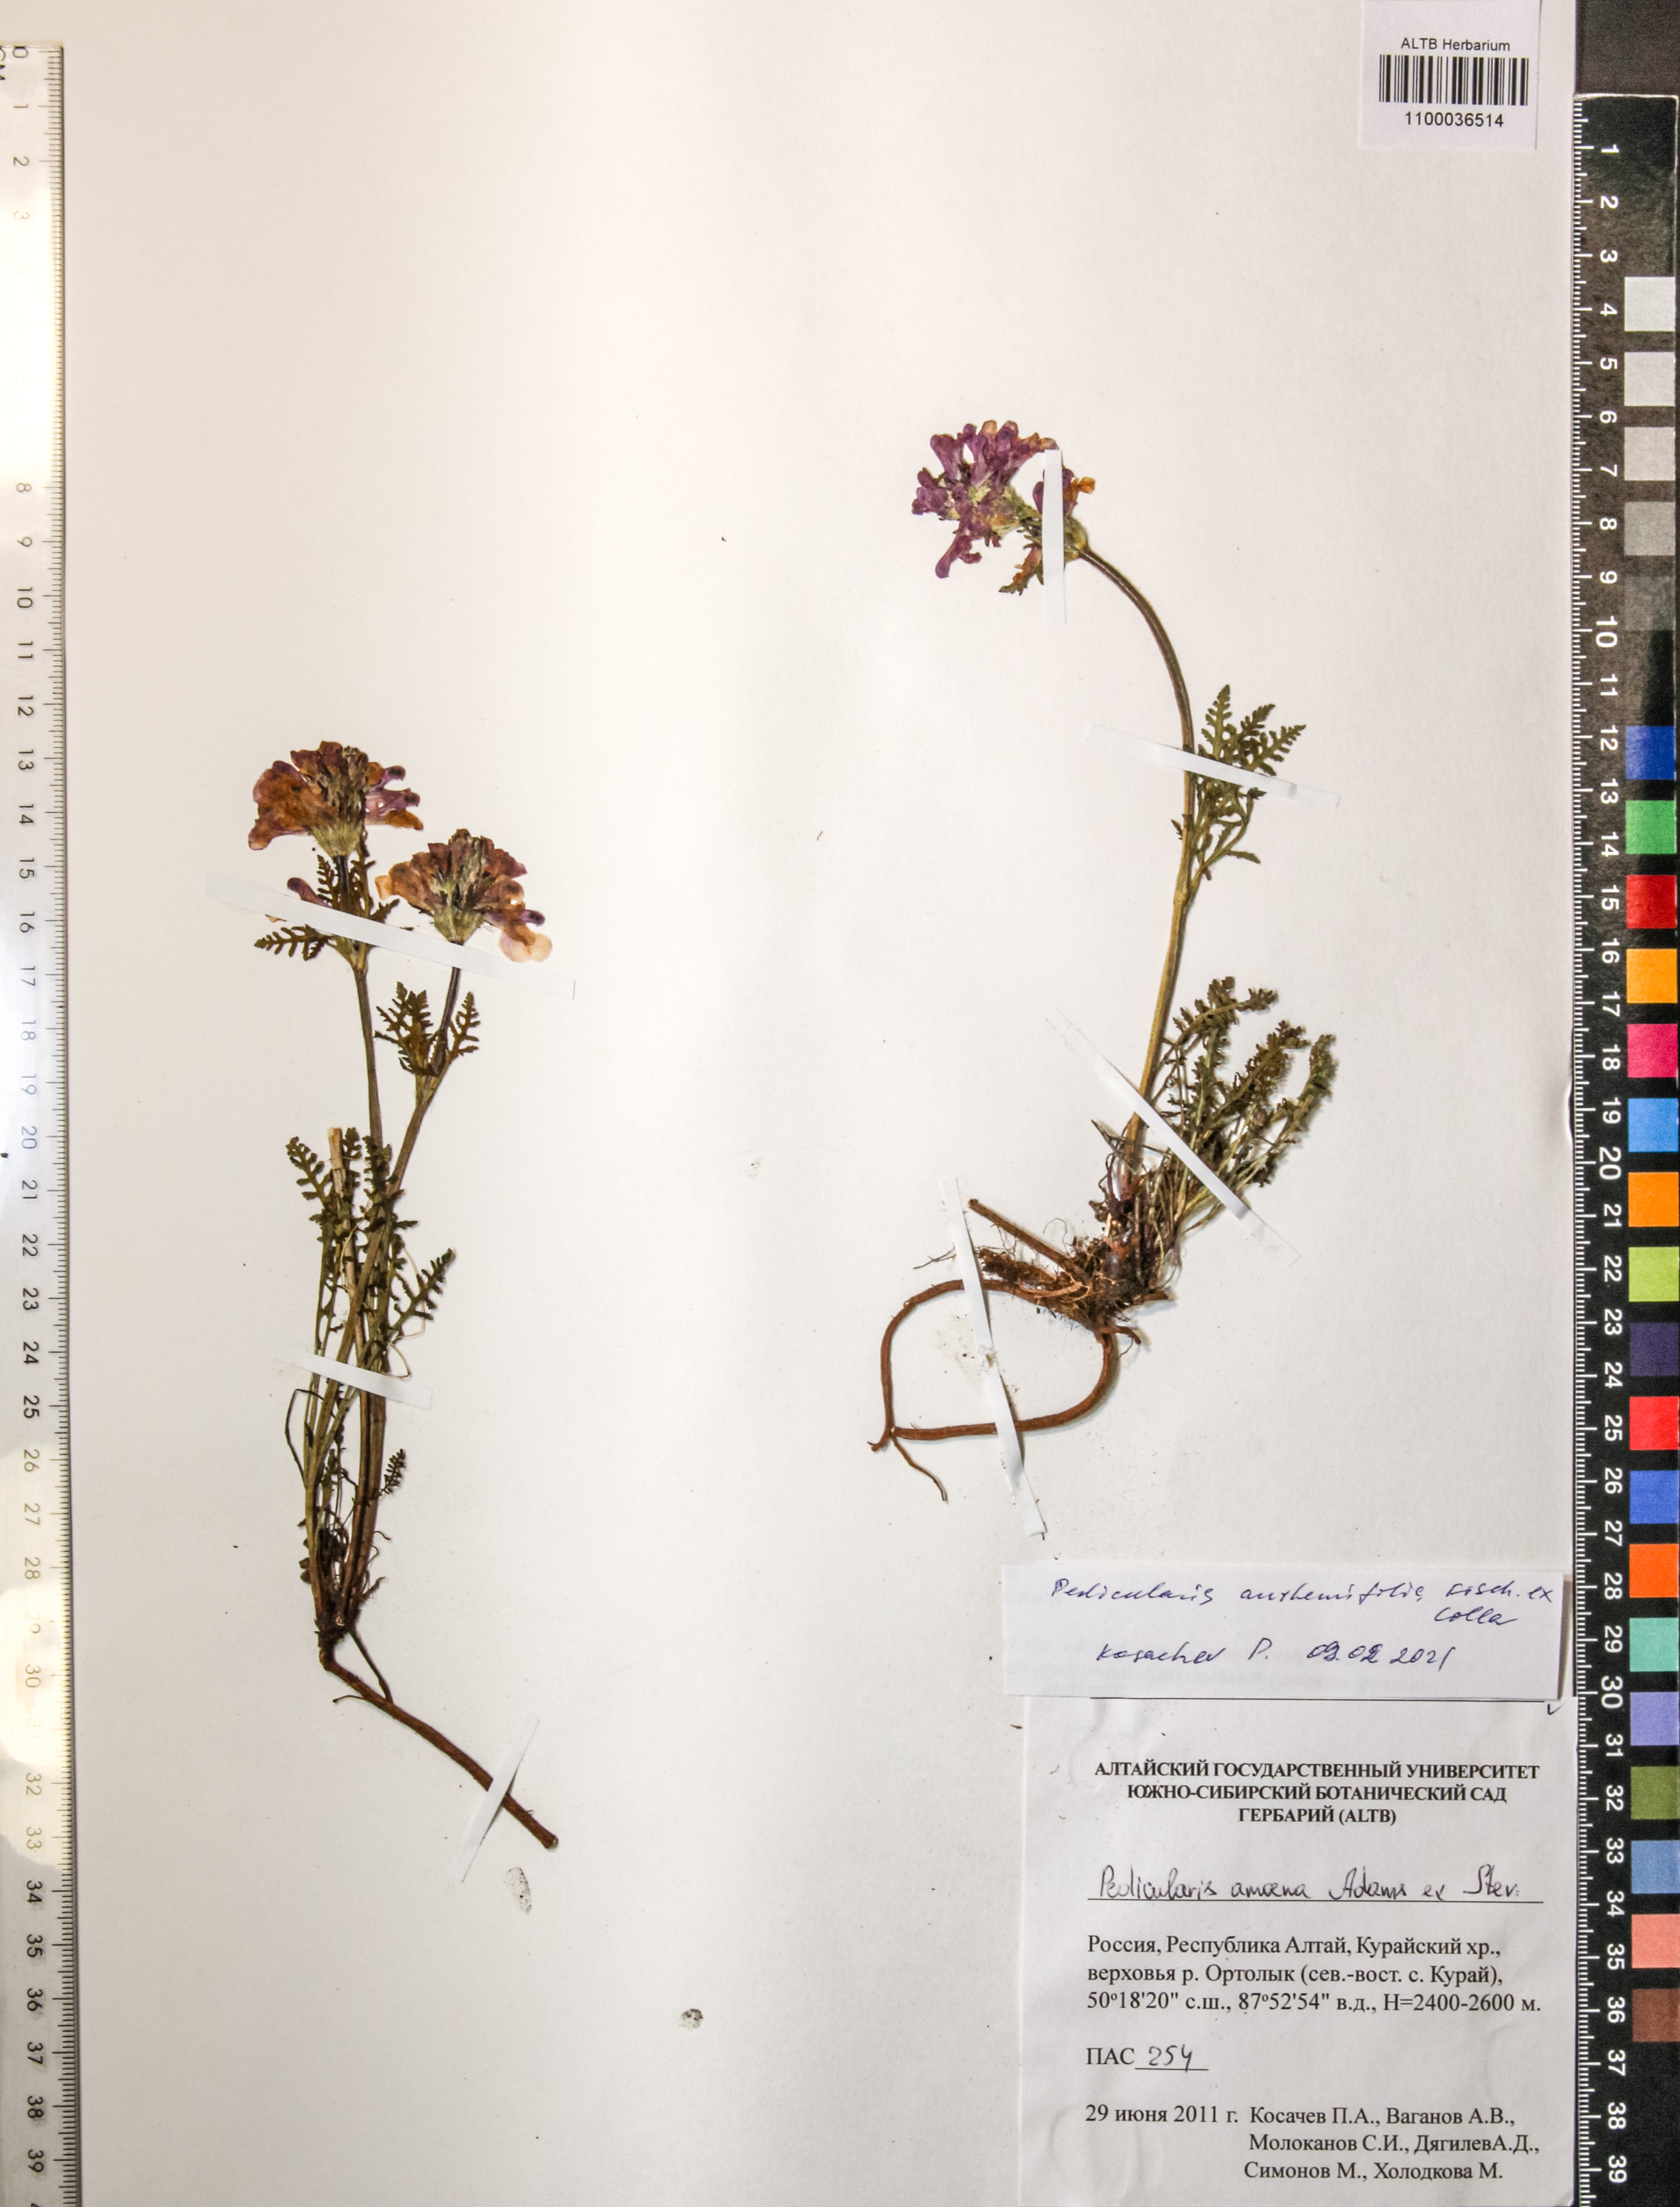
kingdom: Plantae
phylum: Tracheophyta
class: Magnoliopsida
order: Lamiales
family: Orobanchaceae
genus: Pedicularis
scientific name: Pedicularis anthemifolia
